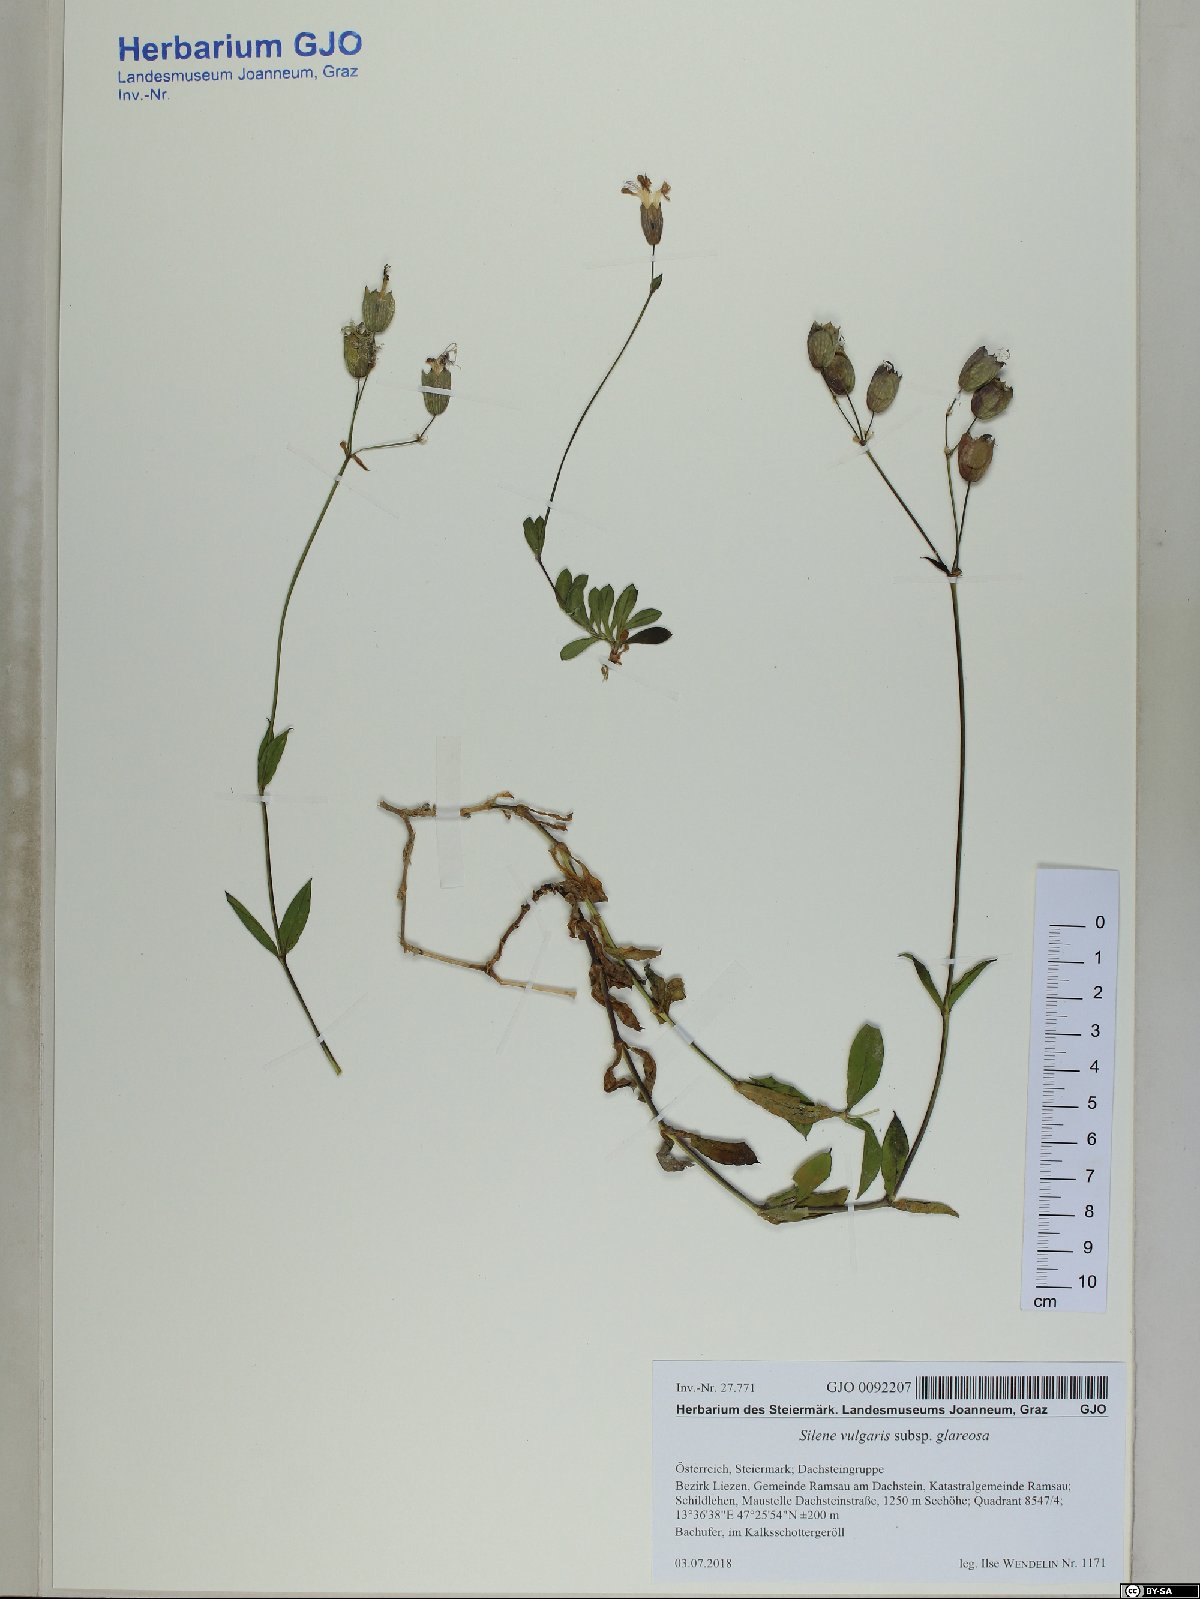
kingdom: Plantae
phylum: Tracheophyta
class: Magnoliopsida
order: Caryophyllales
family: Caryophyllaceae
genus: Silene
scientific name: Silene glareosa
